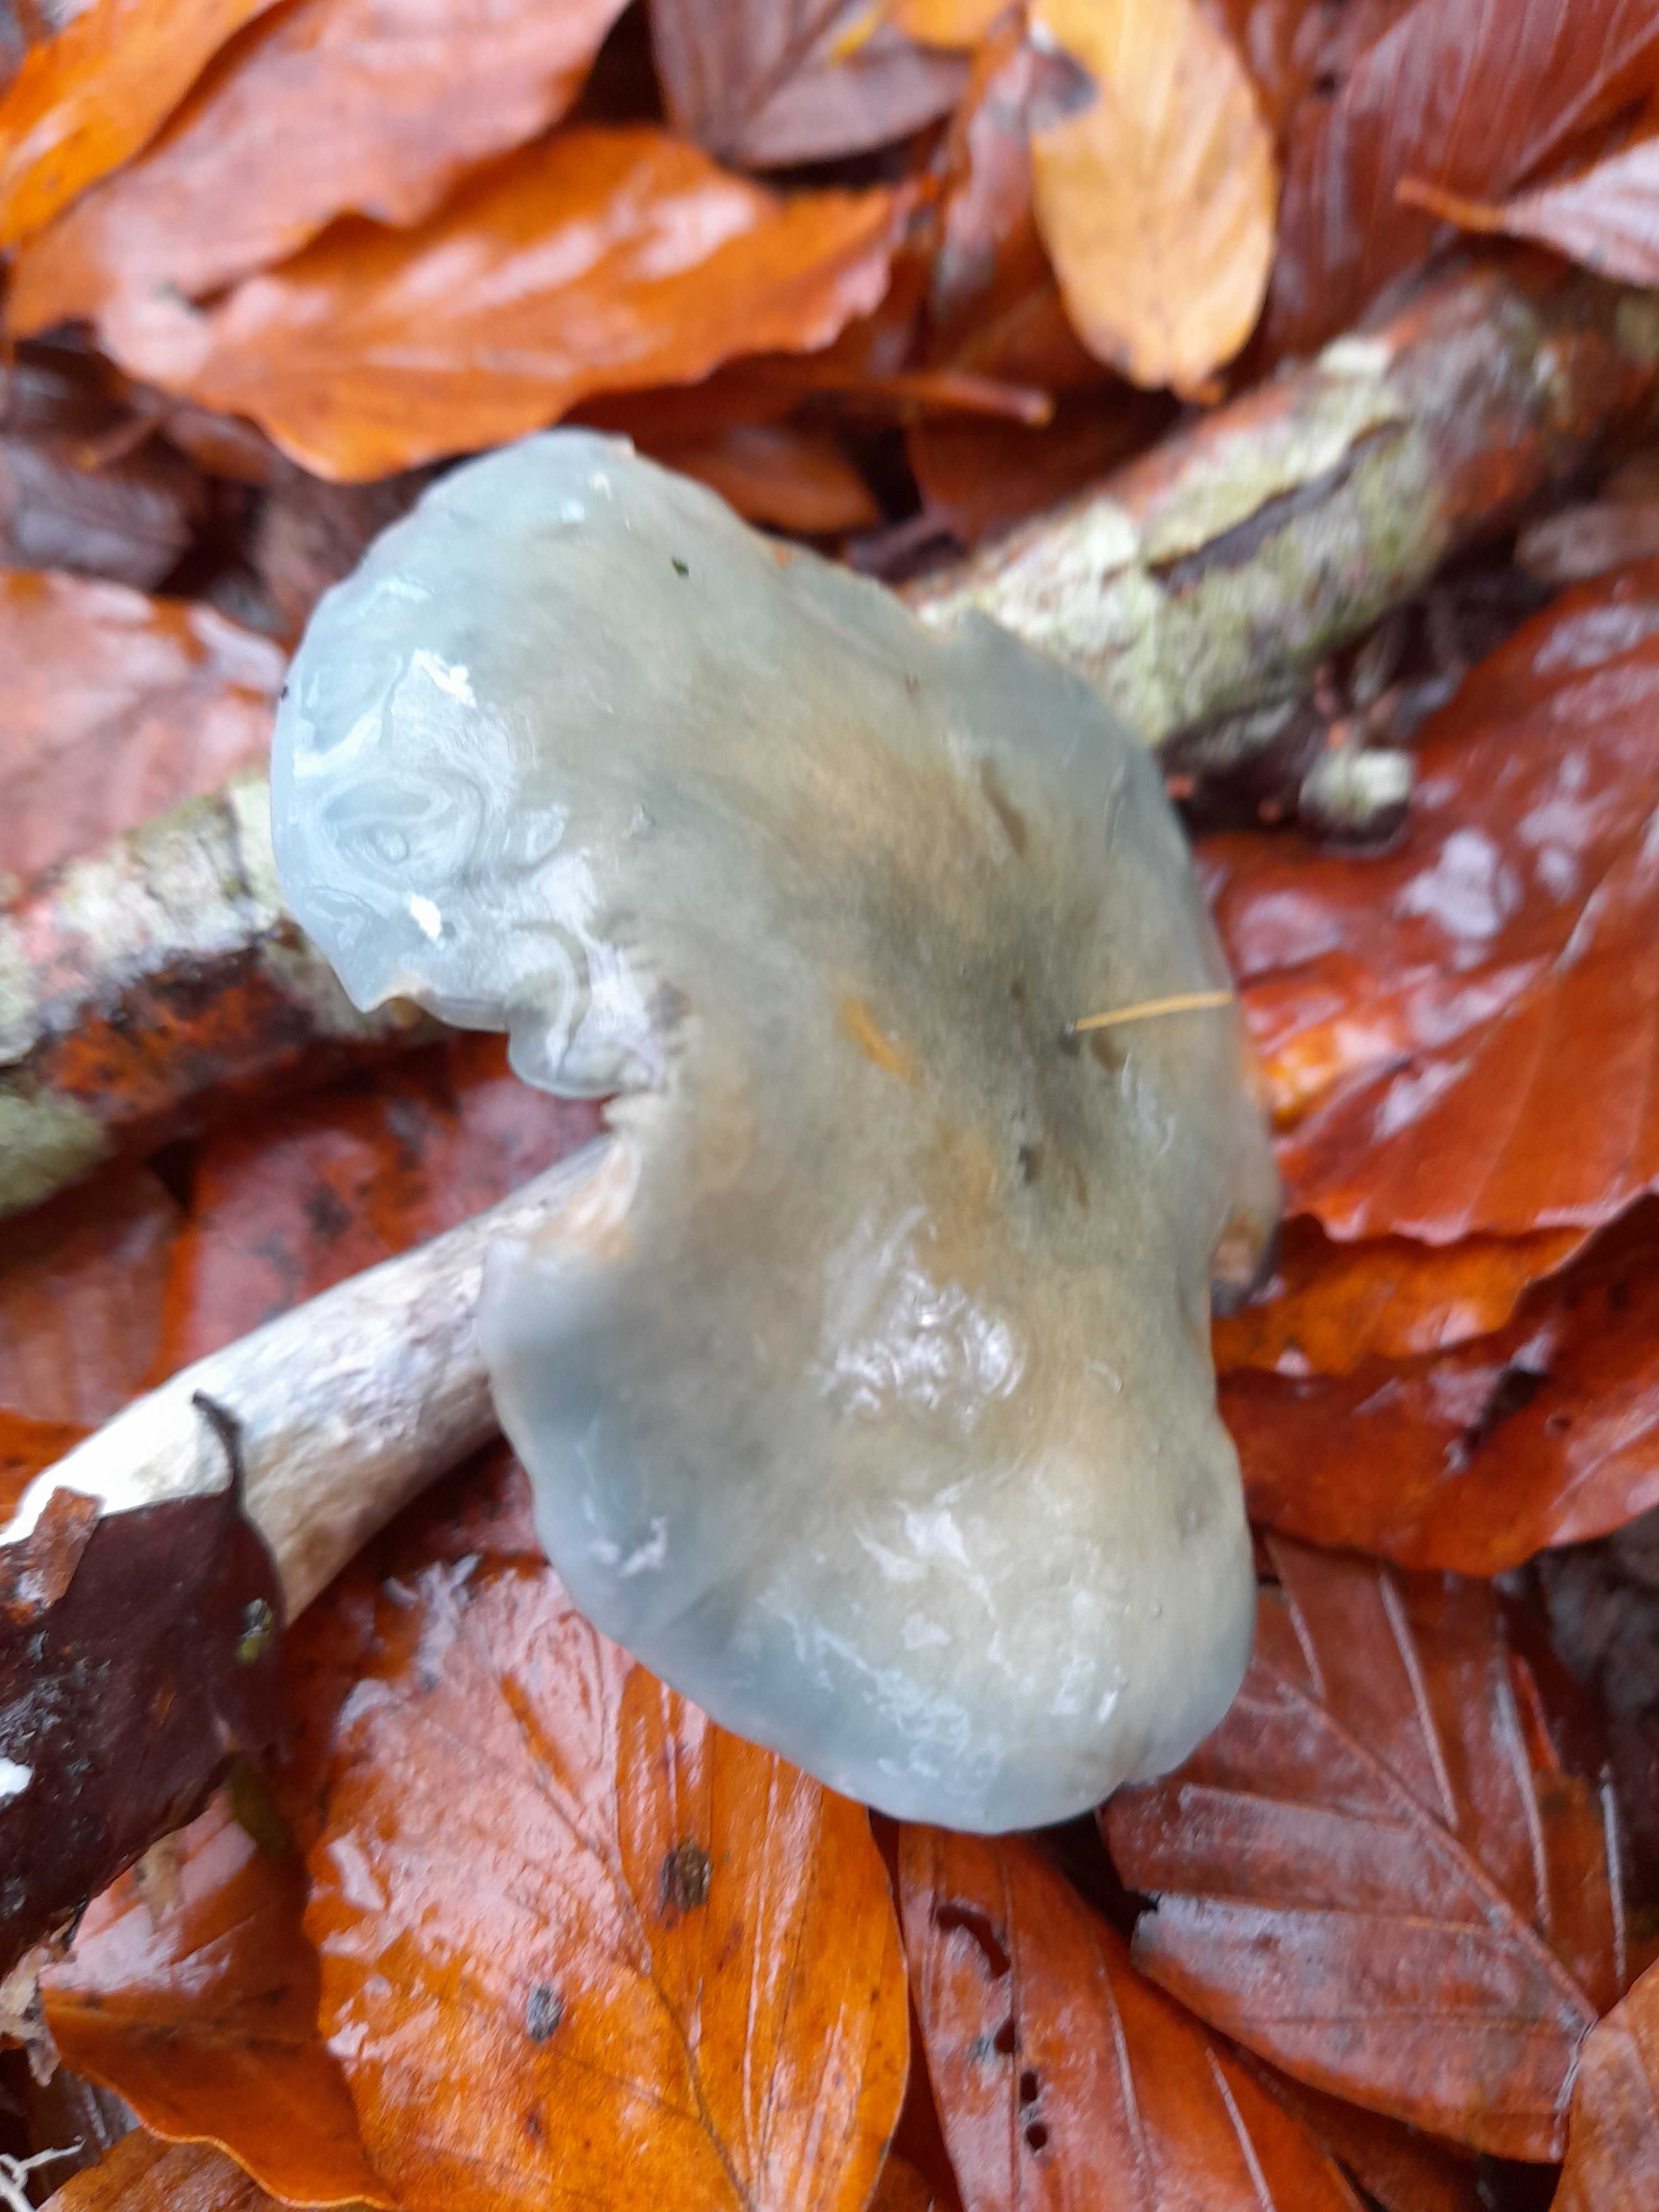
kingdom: Fungi
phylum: Basidiomycota
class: Agaricomycetes
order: Agaricales
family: Strophariaceae
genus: Stropharia
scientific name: Stropharia cyanea
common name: blågrøn bredblad
